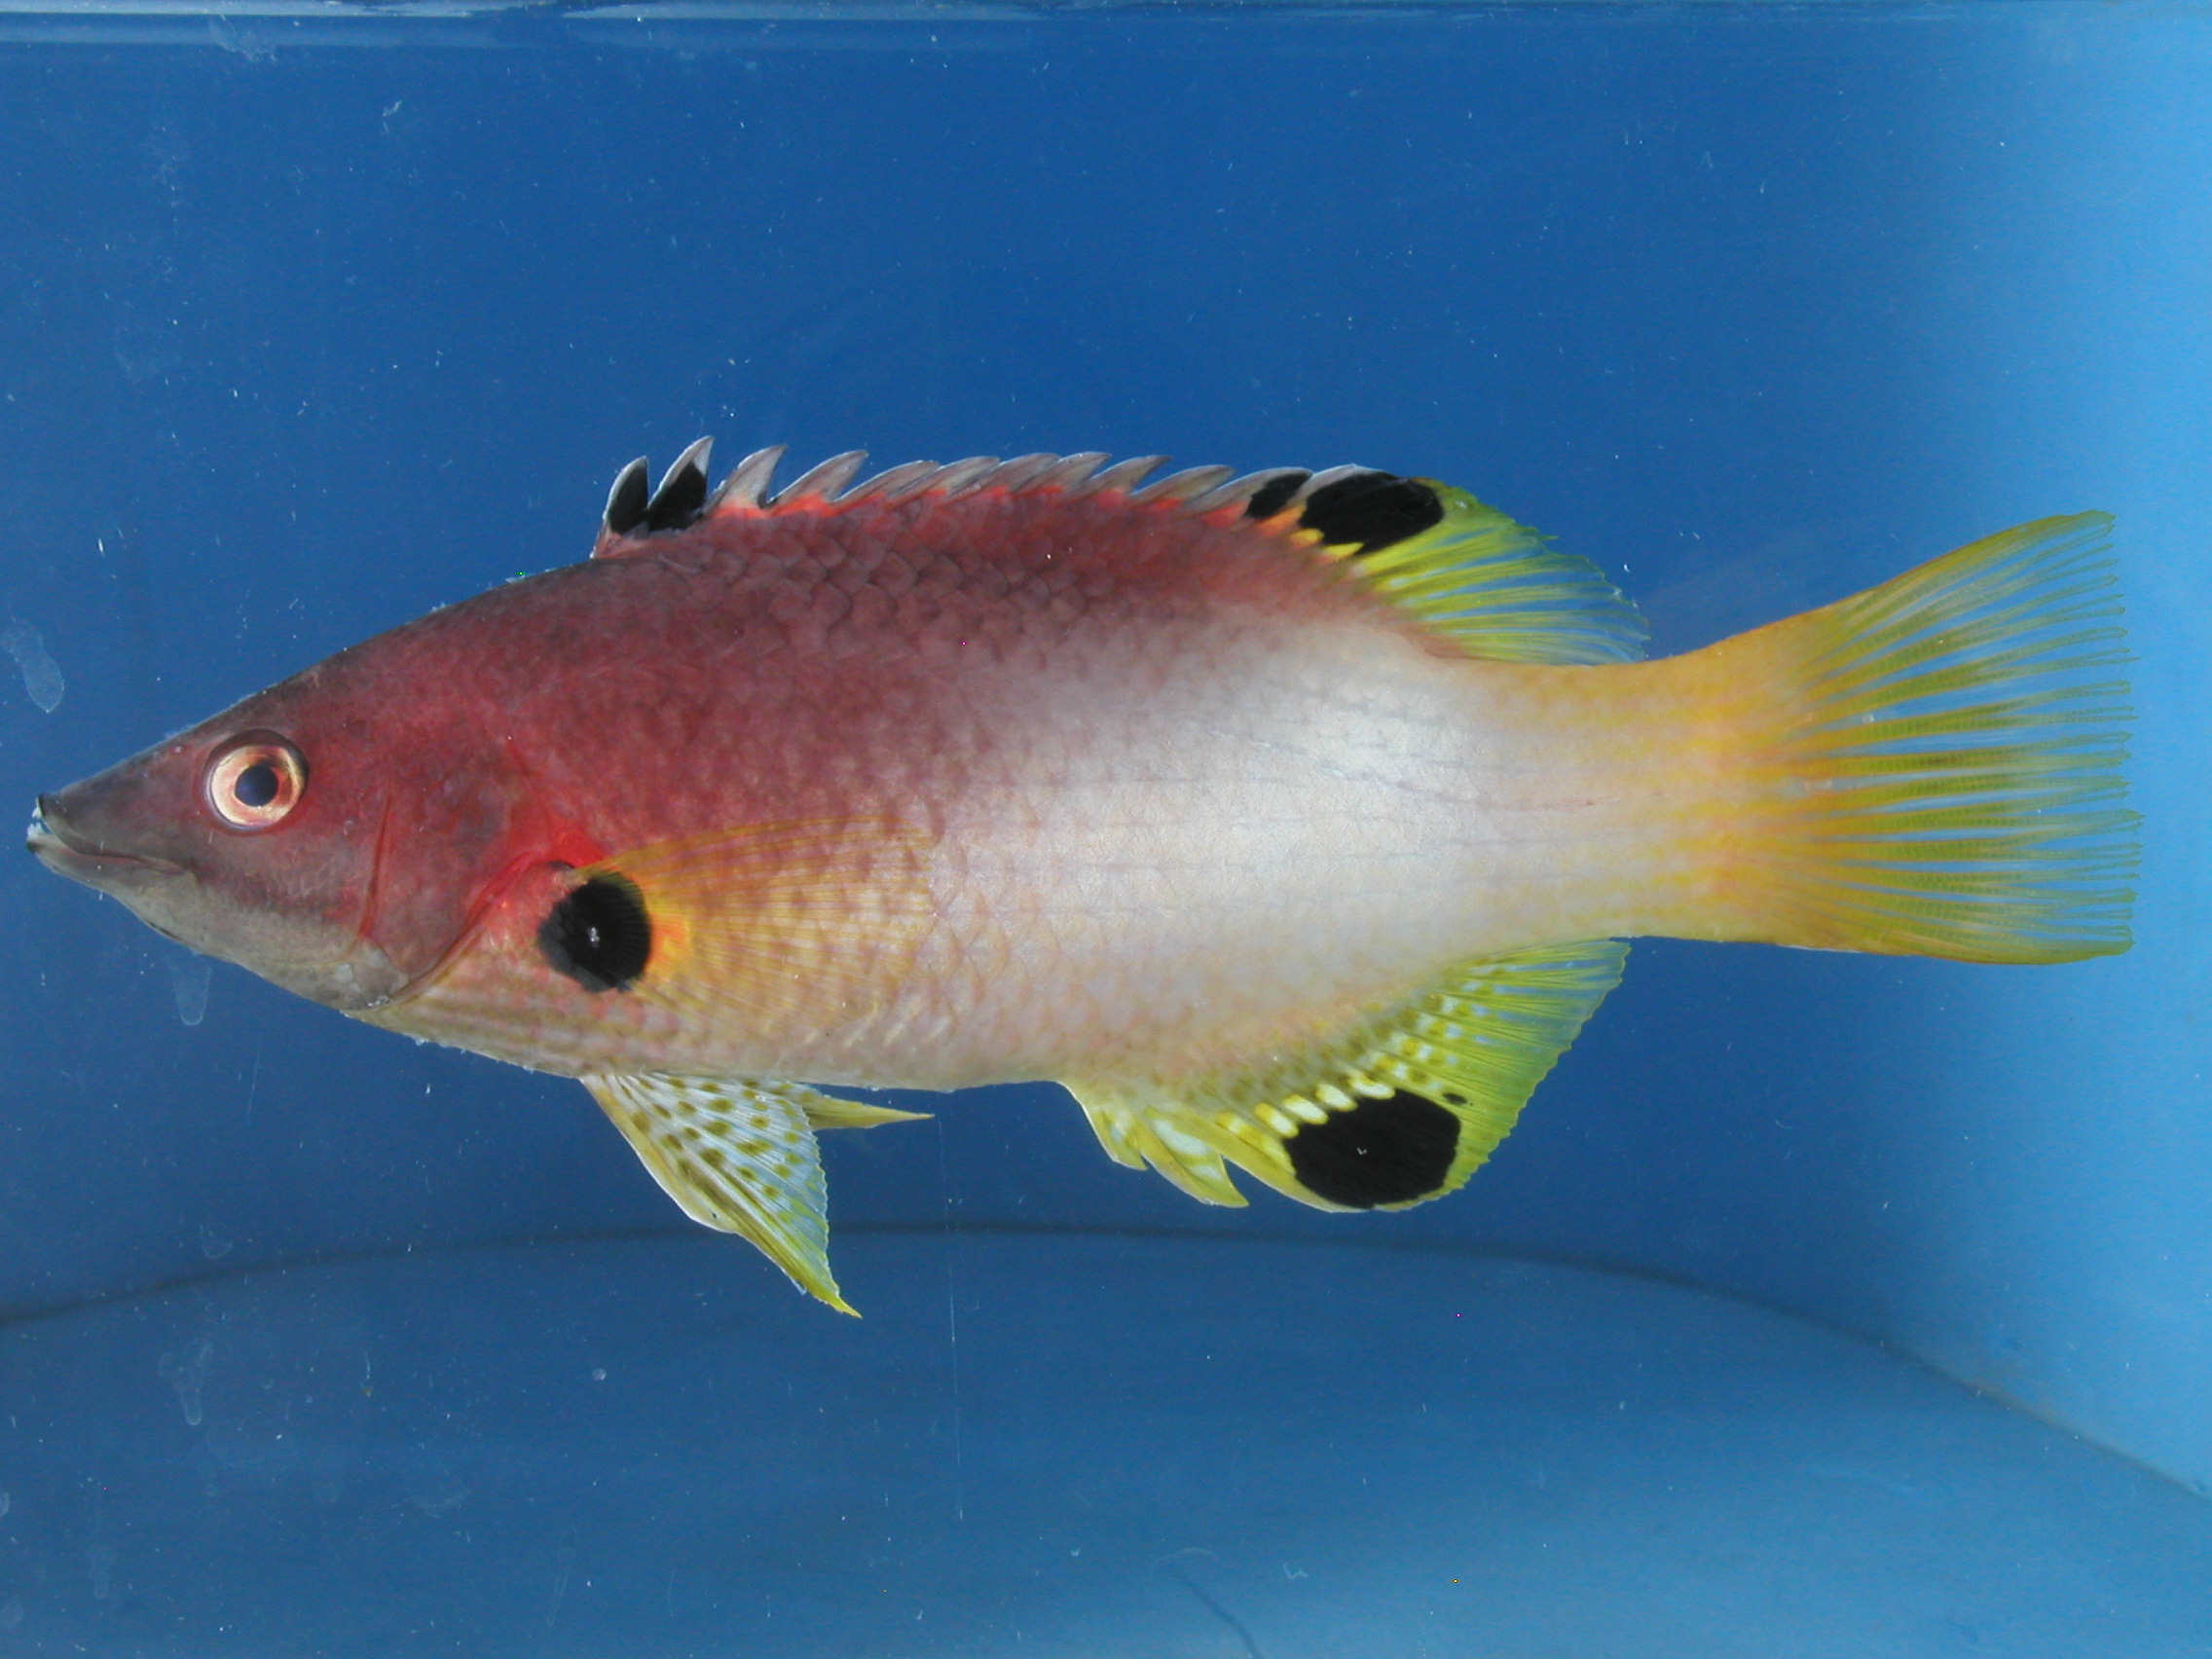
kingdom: Animalia
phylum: Chordata
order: Perciformes
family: Labridae
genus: Bodianus
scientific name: Bodianus axillaris
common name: Axilspot hogfish
